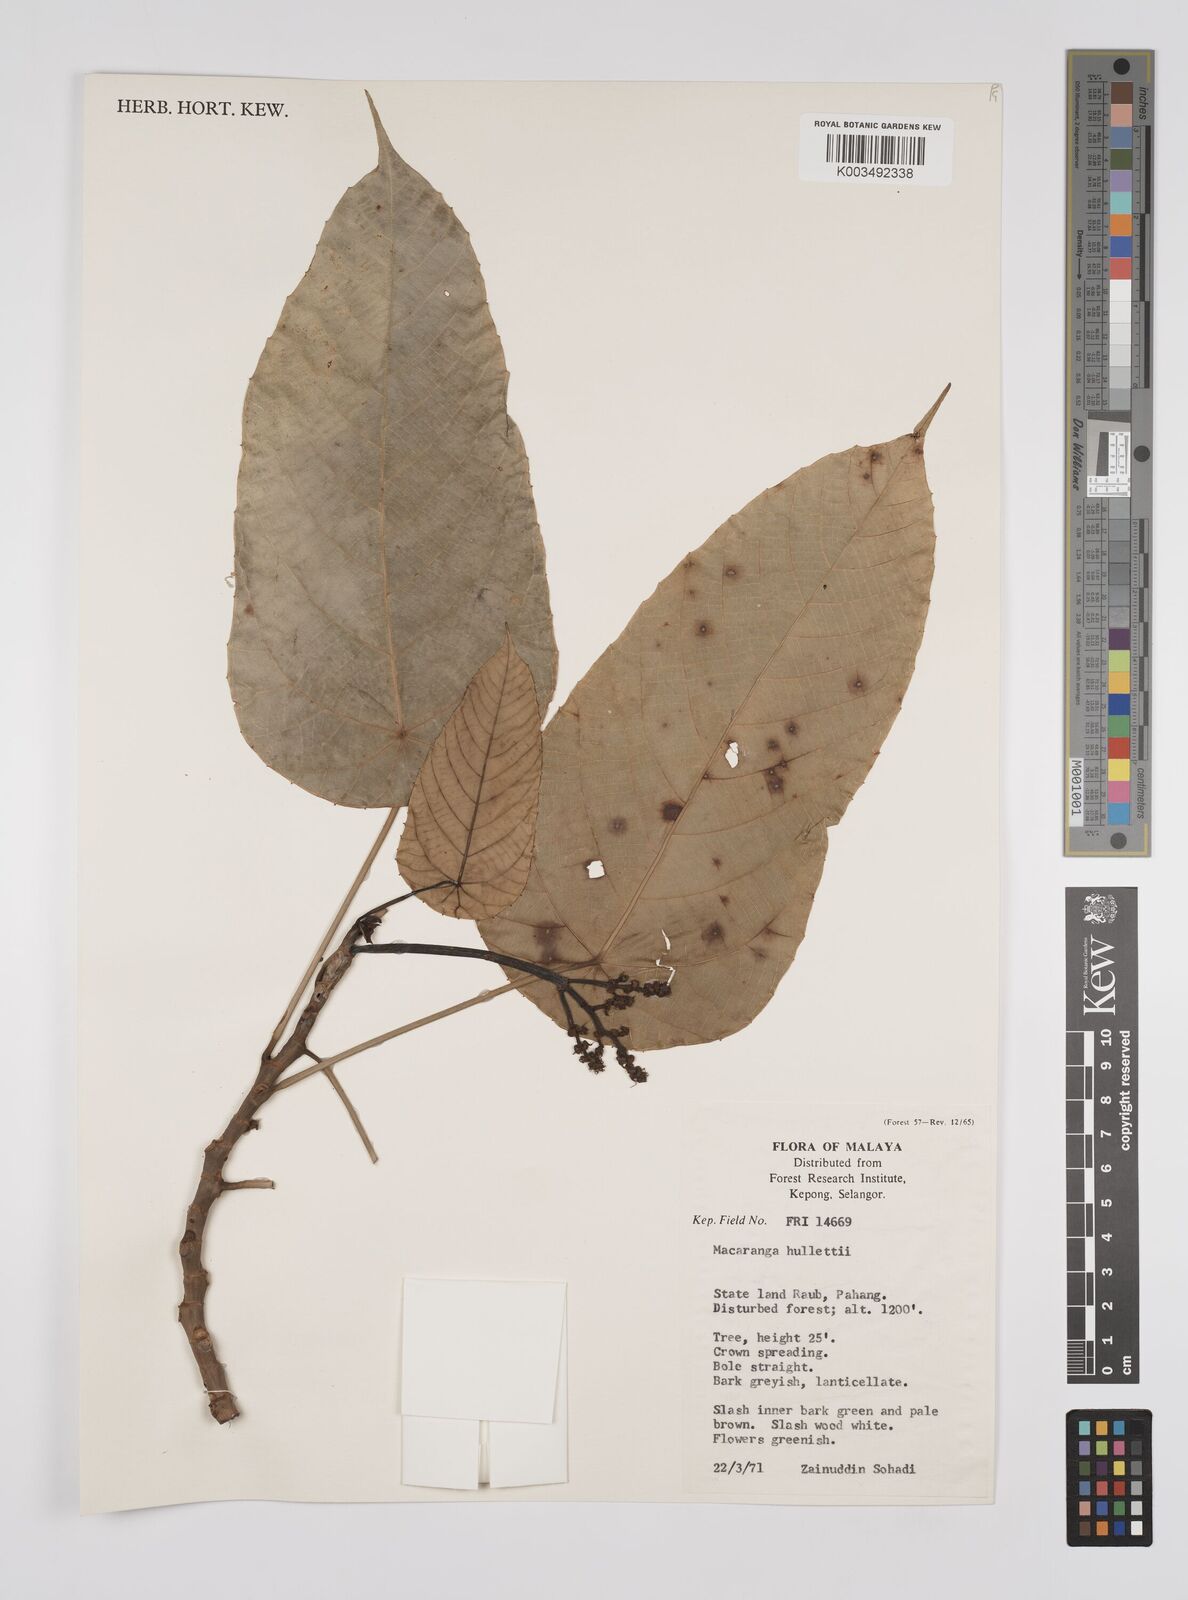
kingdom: Plantae
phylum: Tracheophyta
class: Magnoliopsida
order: Malpighiales
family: Euphorbiaceae
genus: Macaranga
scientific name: Macaranga hullettii
